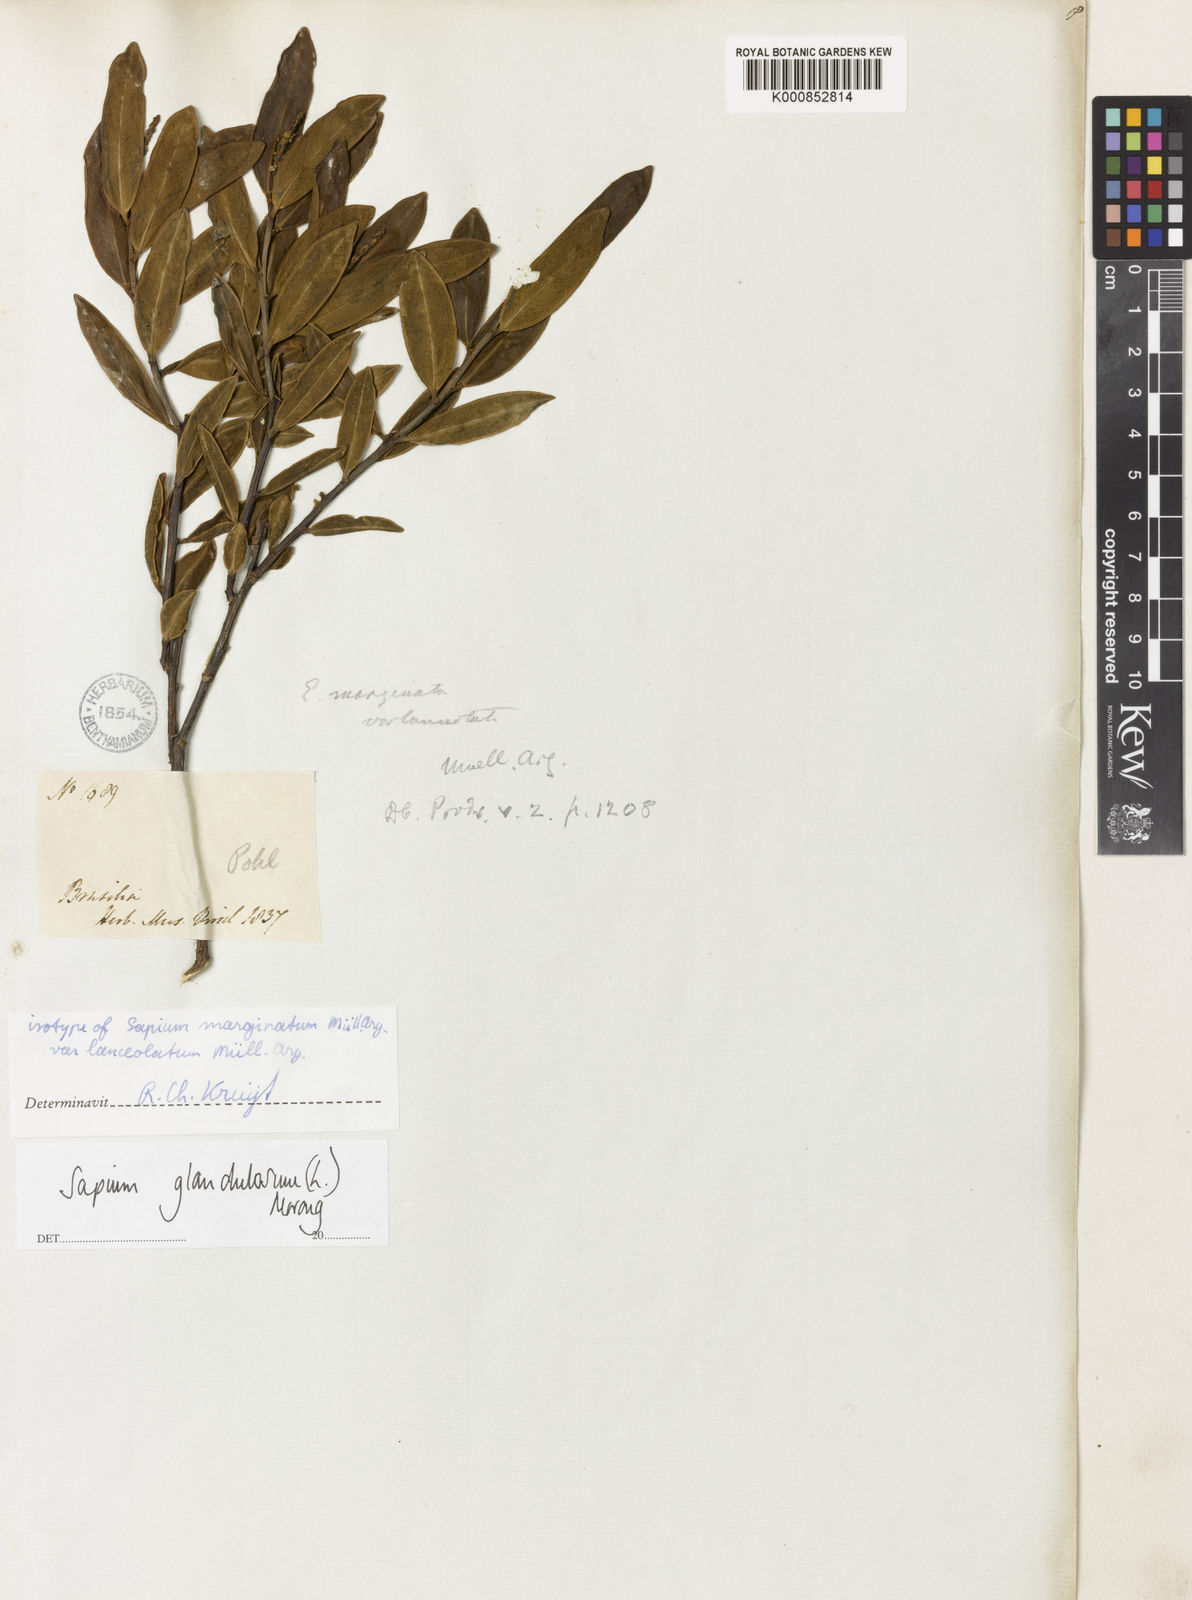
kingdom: Plantae
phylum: Tracheophyta
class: Magnoliopsida
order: Malpighiales
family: Euphorbiaceae
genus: Sapium
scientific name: Sapium glandulosum
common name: Milktree
